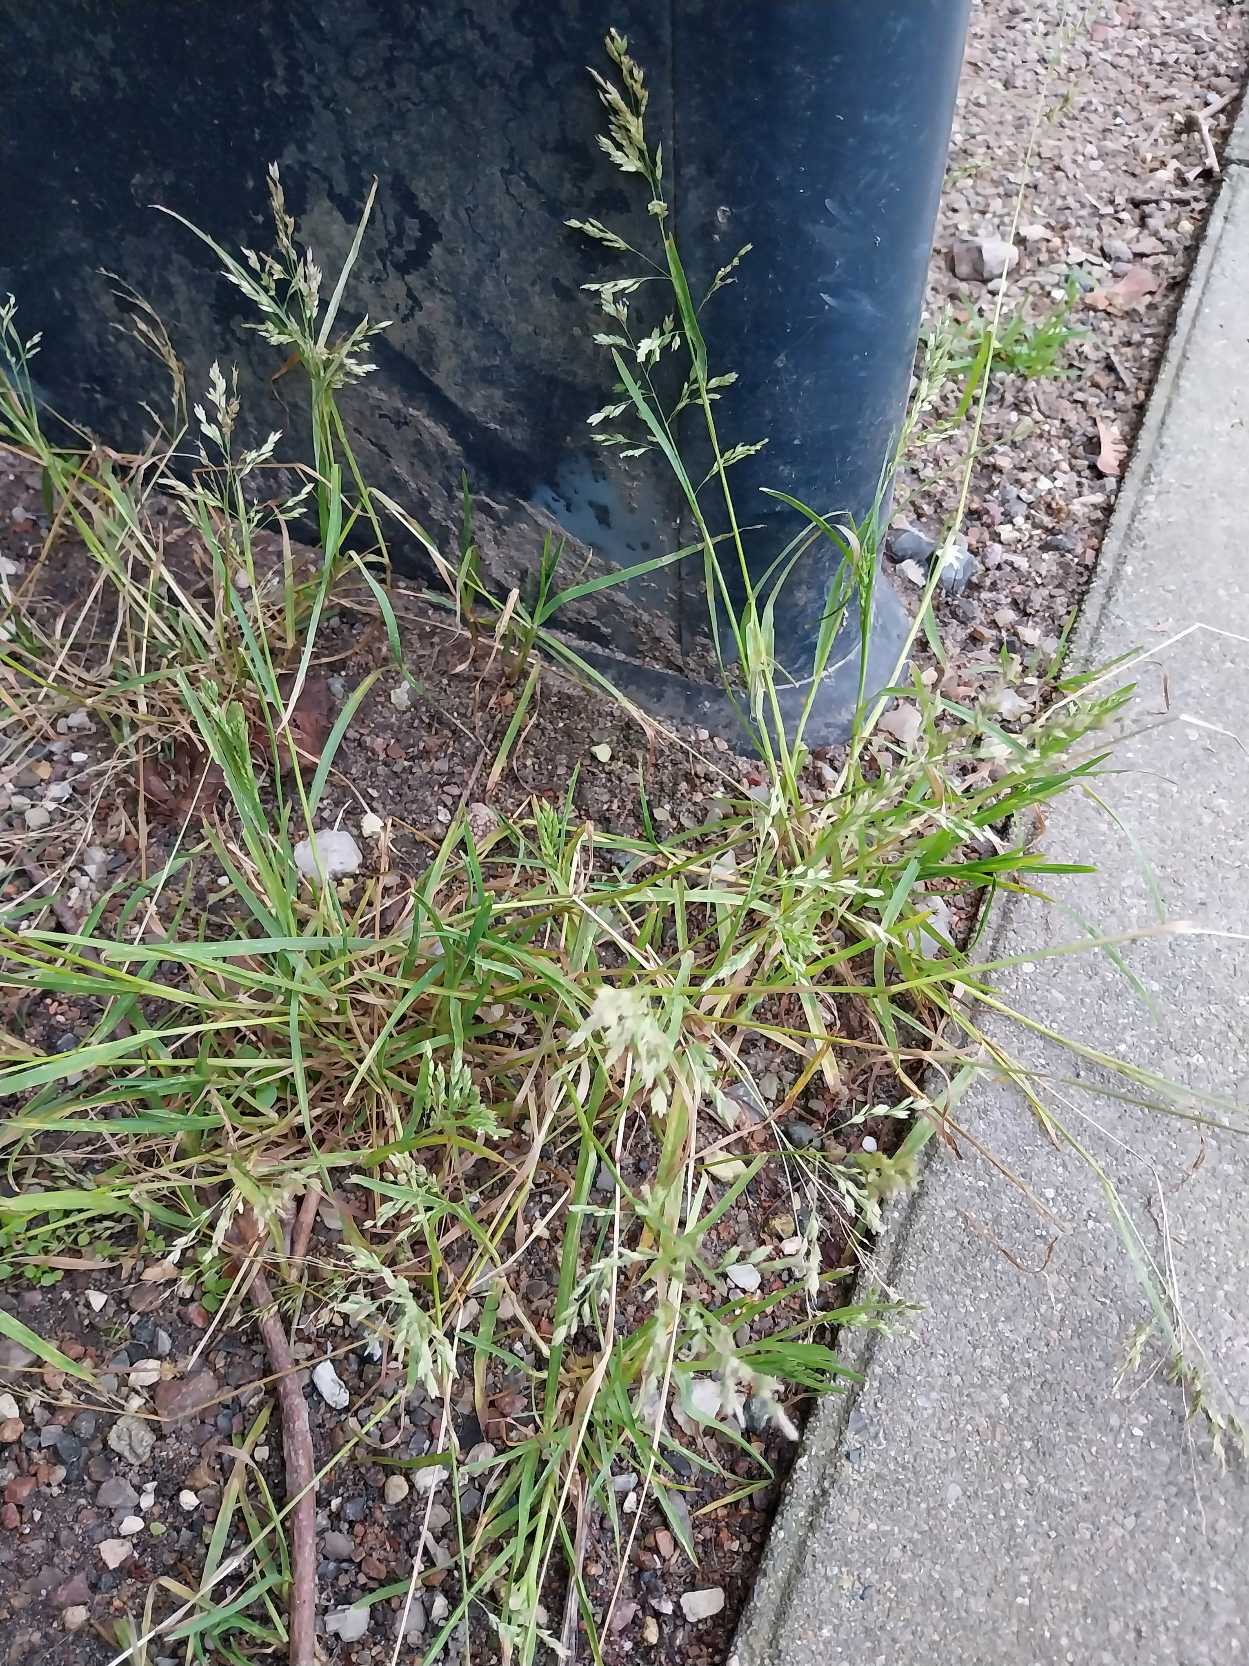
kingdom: Plantae
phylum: Tracheophyta
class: Liliopsida
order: Poales
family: Poaceae
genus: Poa
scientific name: Poa annua
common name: Enårig rapgræs
